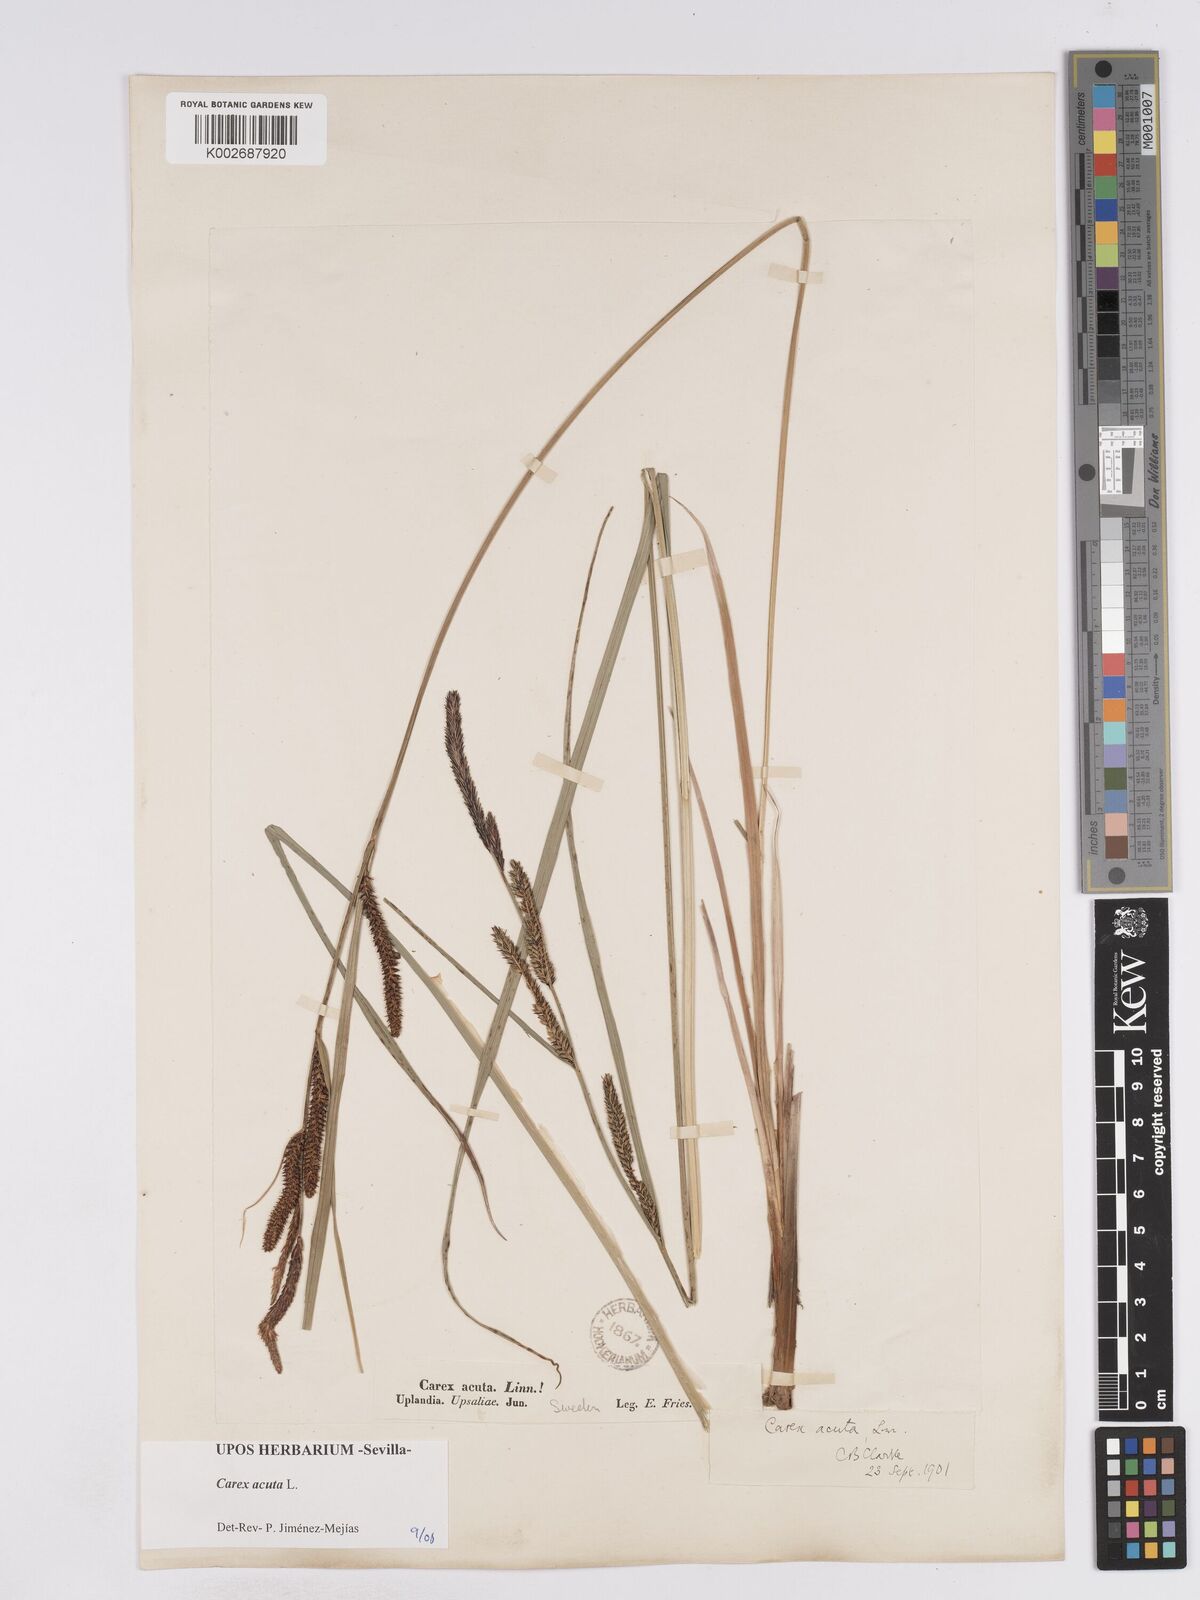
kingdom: Plantae
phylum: Tracheophyta
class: Liliopsida
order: Poales
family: Cyperaceae
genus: Carex
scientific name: Carex acuta
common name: Slender tufted-sedge
